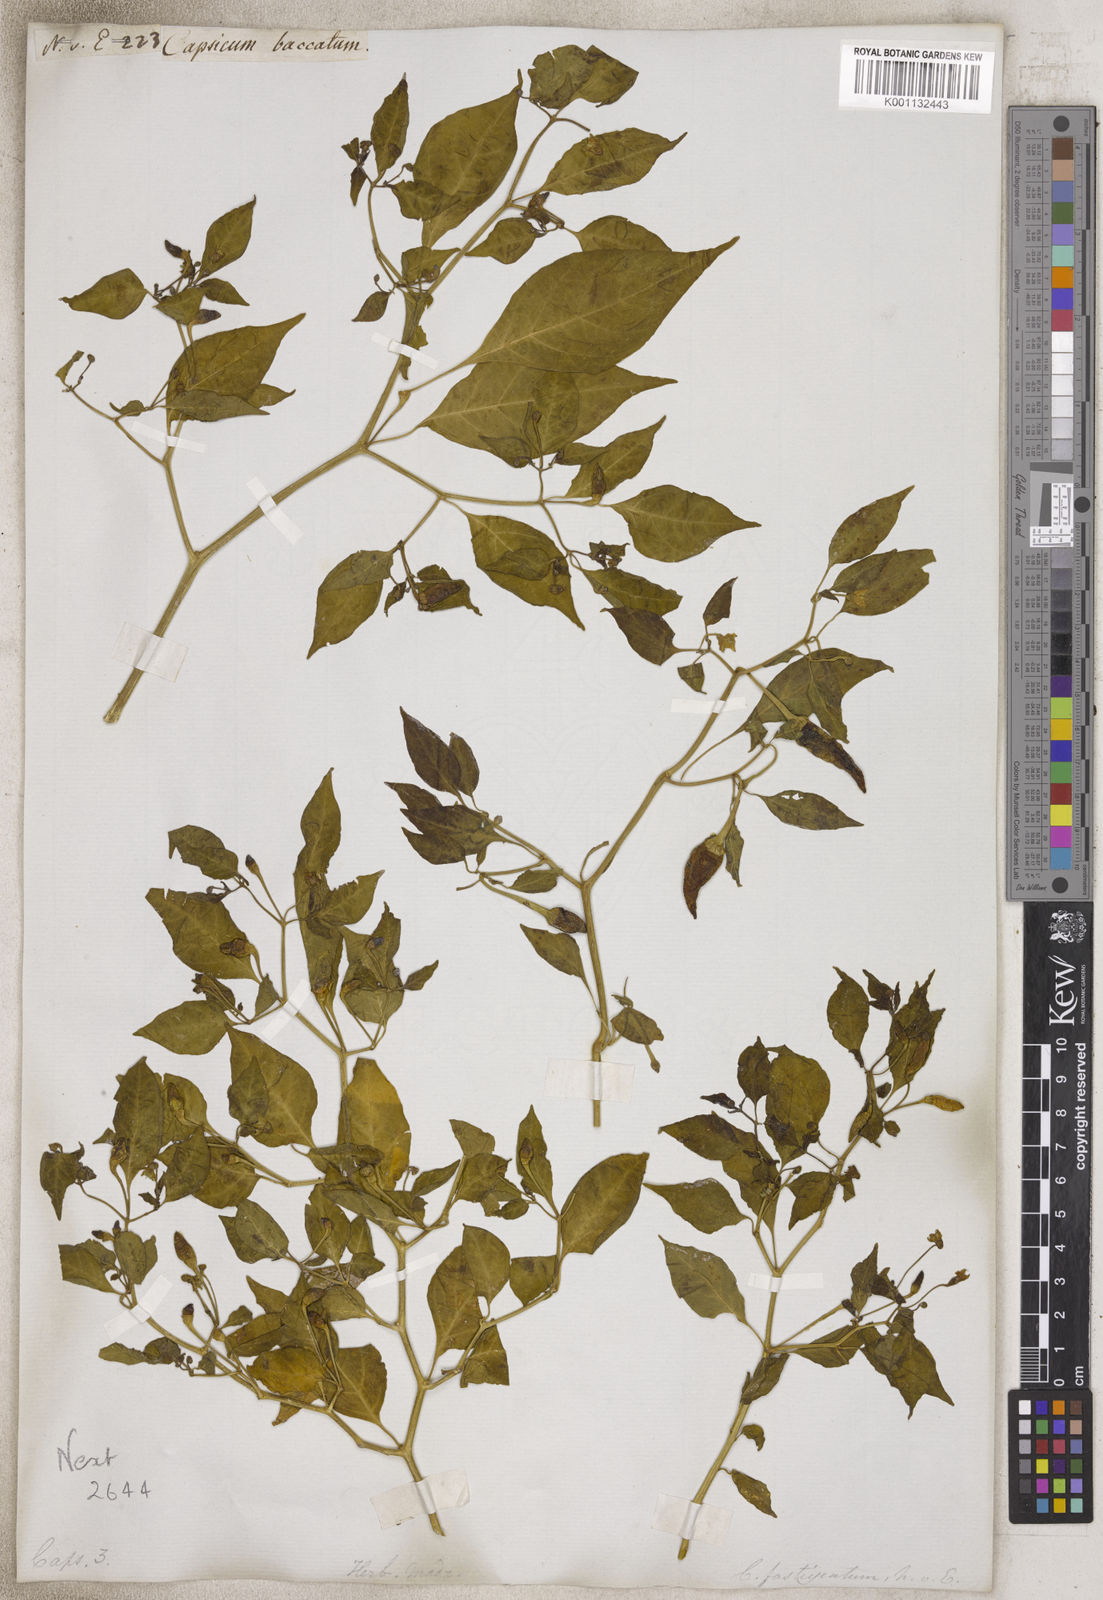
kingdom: Plantae
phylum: Tracheophyta
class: Magnoliopsida
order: Solanales
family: Solanaceae
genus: Capsicum
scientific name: Capsicum
